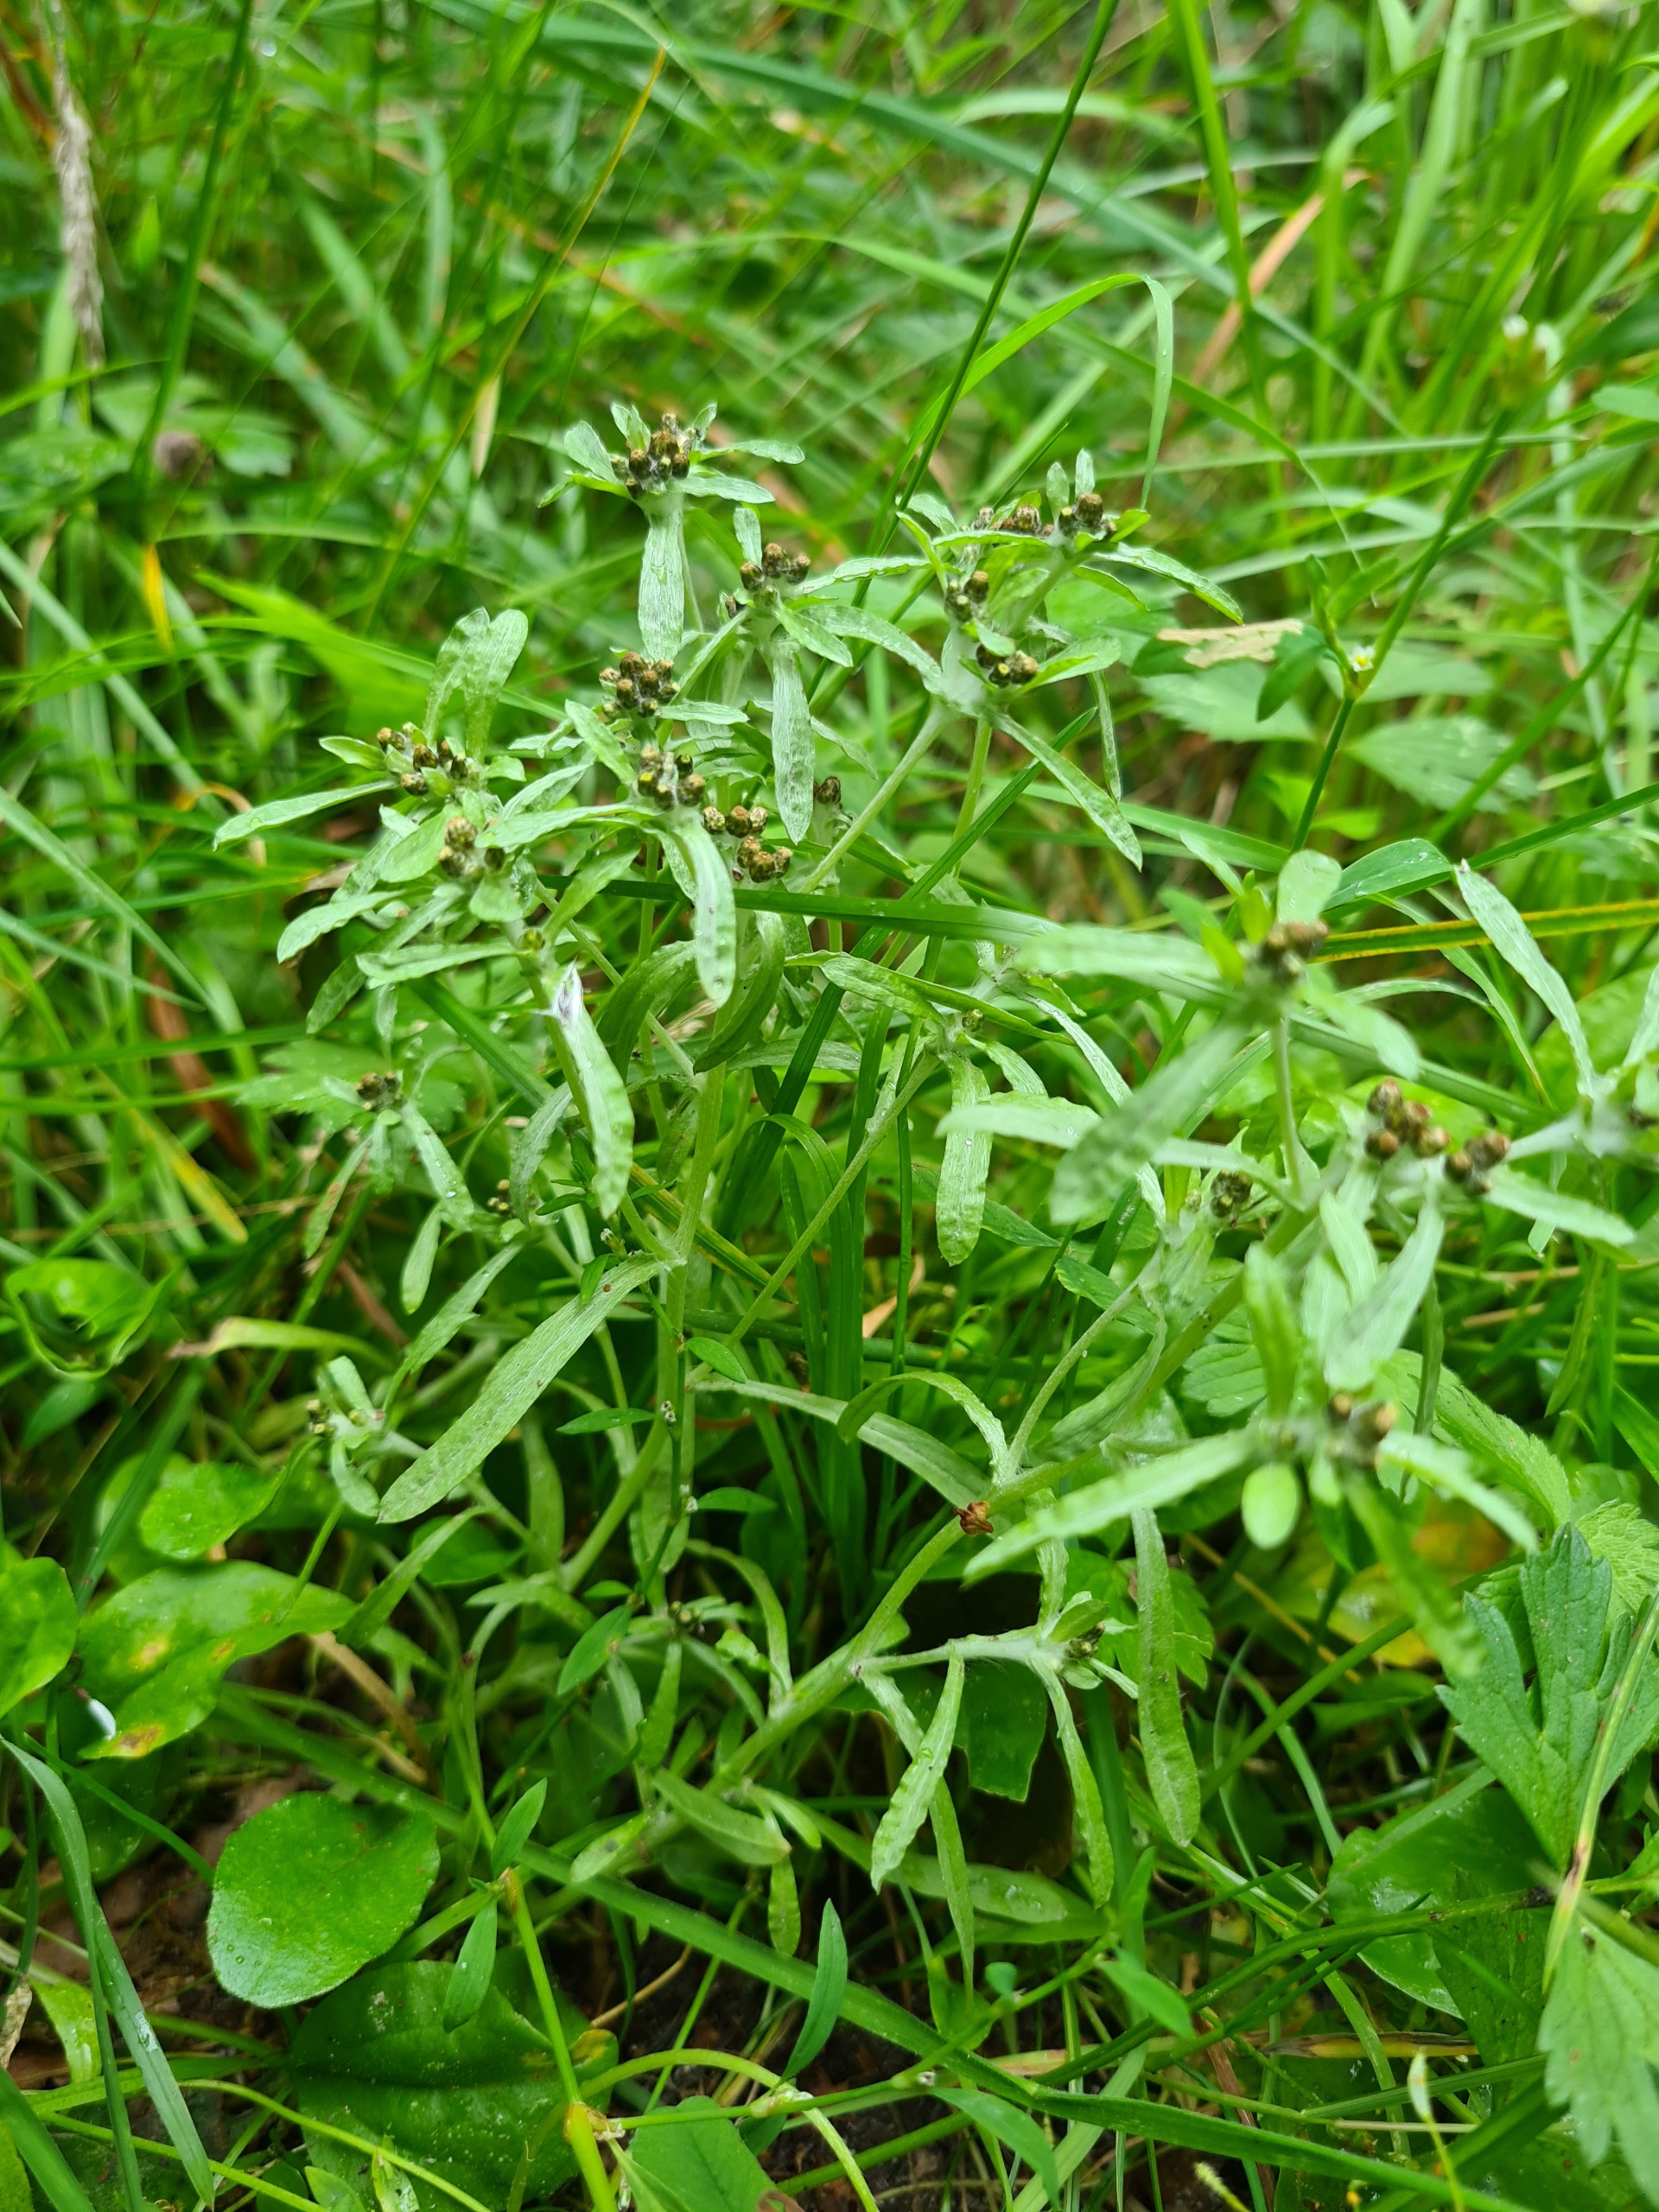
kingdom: Plantae
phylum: Tracheophyta
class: Magnoliopsida
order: Asterales
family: Asteraceae
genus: Gnaphalium
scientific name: Gnaphalium uliginosum
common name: Sump-evighedsblomst
